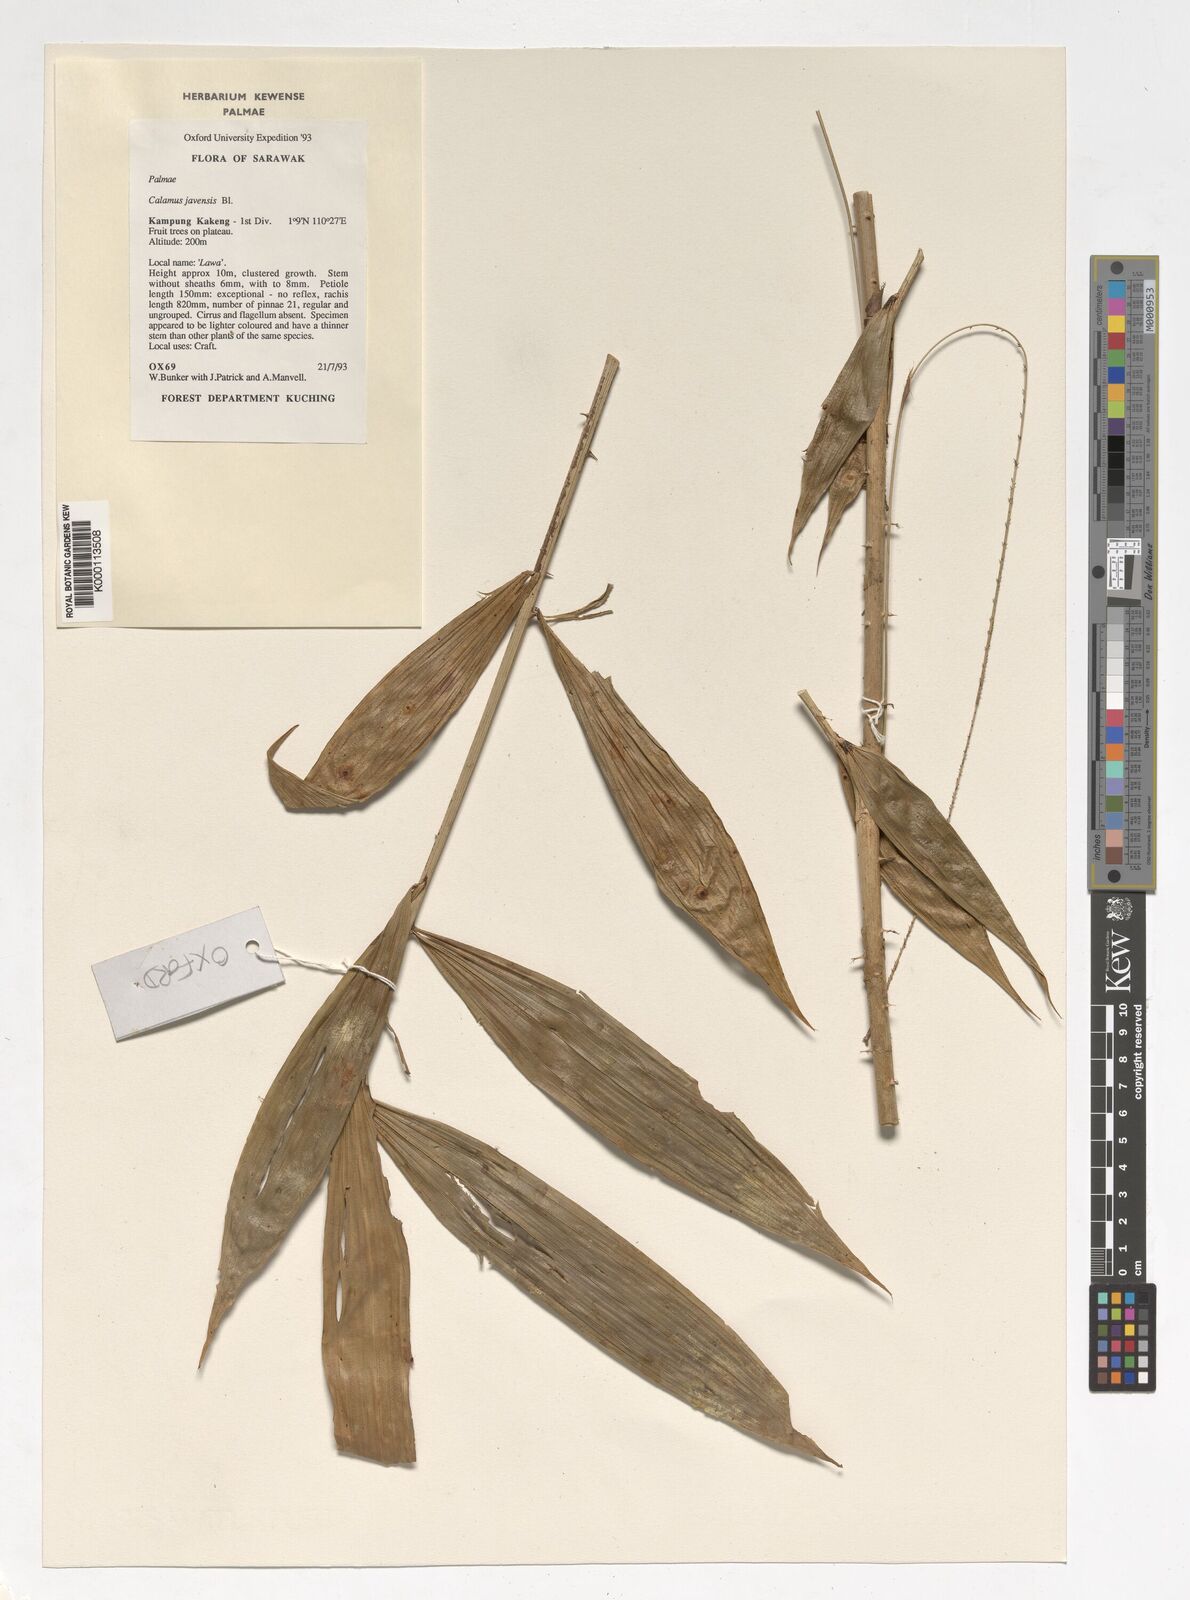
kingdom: Plantae
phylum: Tracheophyta
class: Liliopsida
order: Arecales
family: Arecaceae
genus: Calamus
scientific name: Calamus javensis
